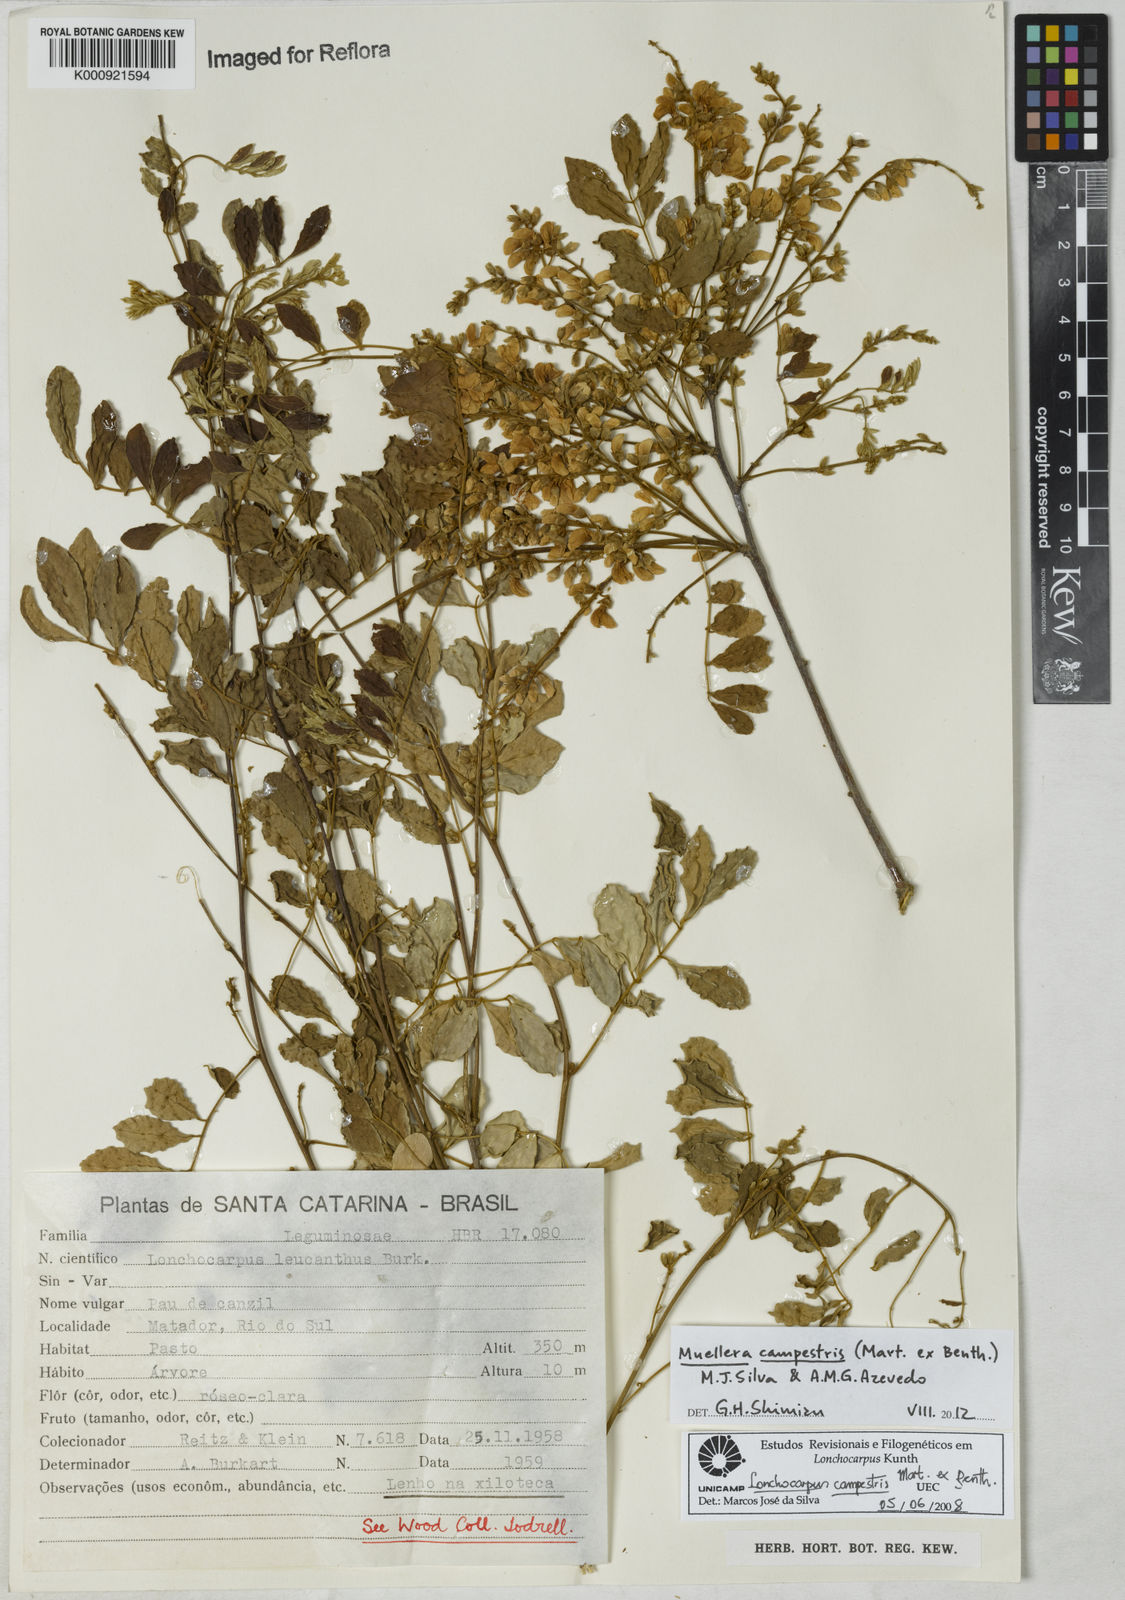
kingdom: Plantae
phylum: Tracheophyta
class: Magnoliopsida
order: Fabales
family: Fabaceae
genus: Muellera
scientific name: Muellera campestris
